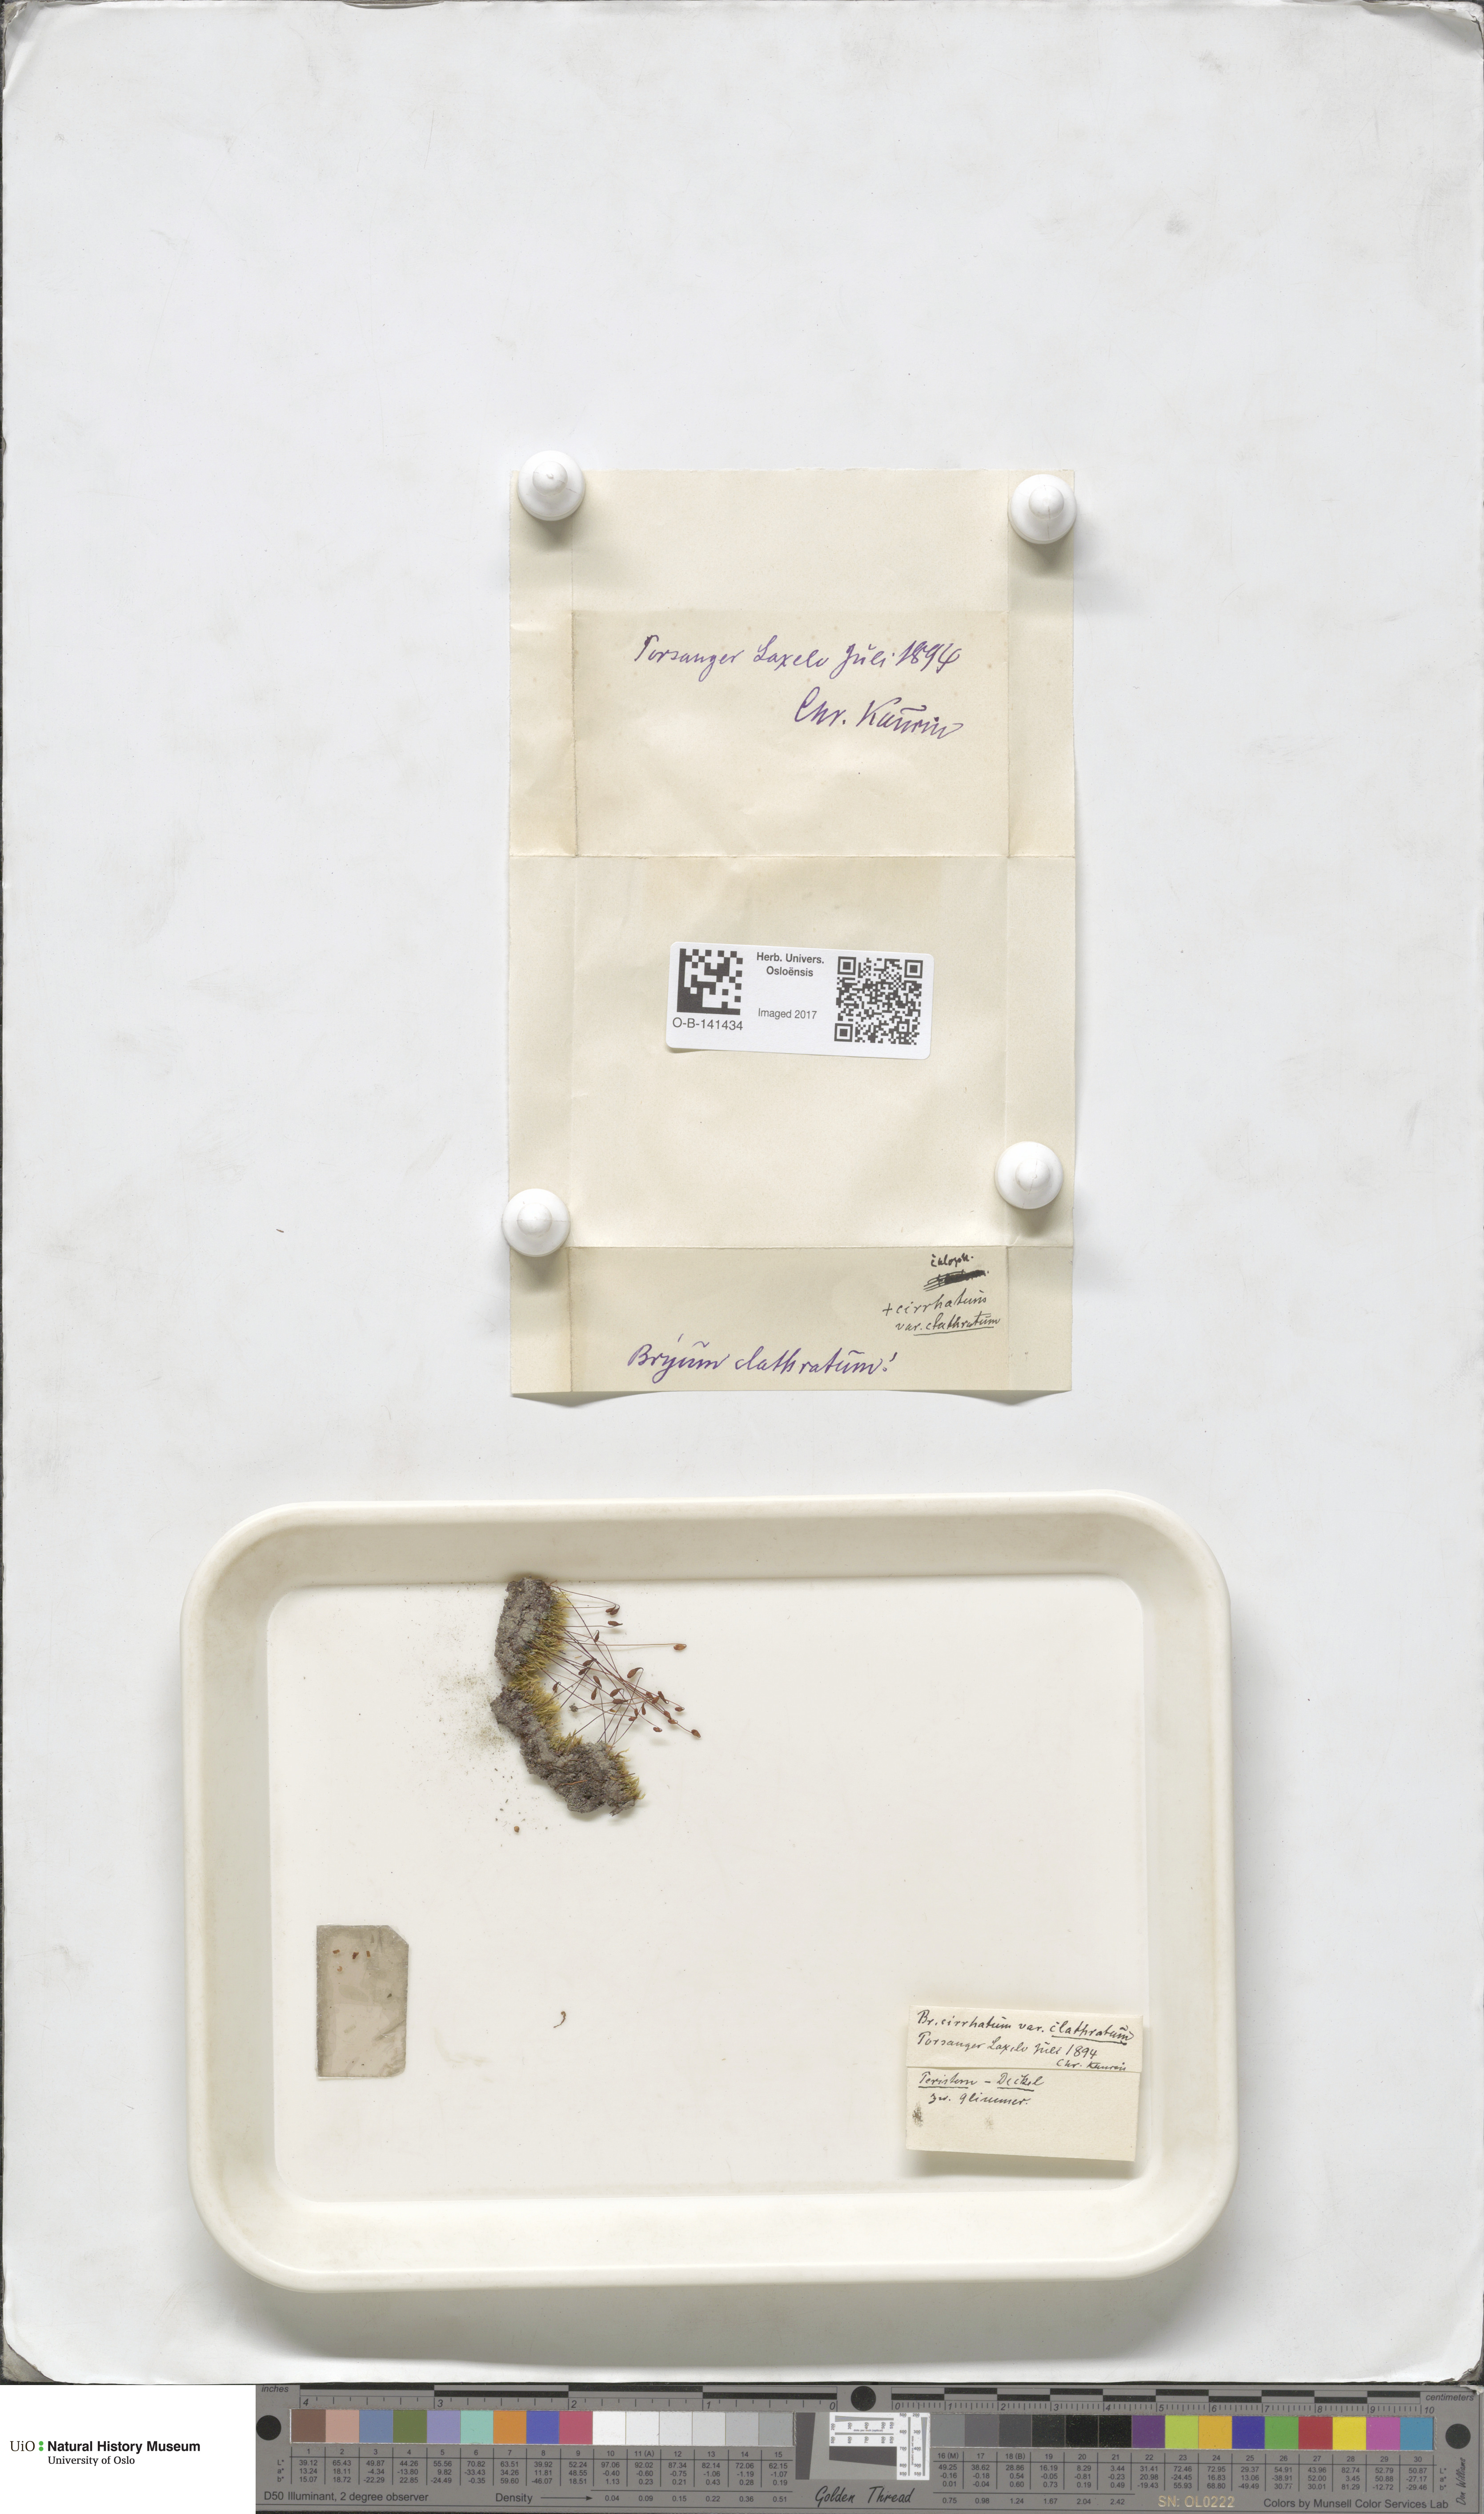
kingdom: Plantae
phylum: Bryophyta
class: Bryopsida
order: Bryales
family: Bryaceae
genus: Ptychostomum
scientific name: Ptychostomum pallescens
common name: Tall-clustered thread-moss
